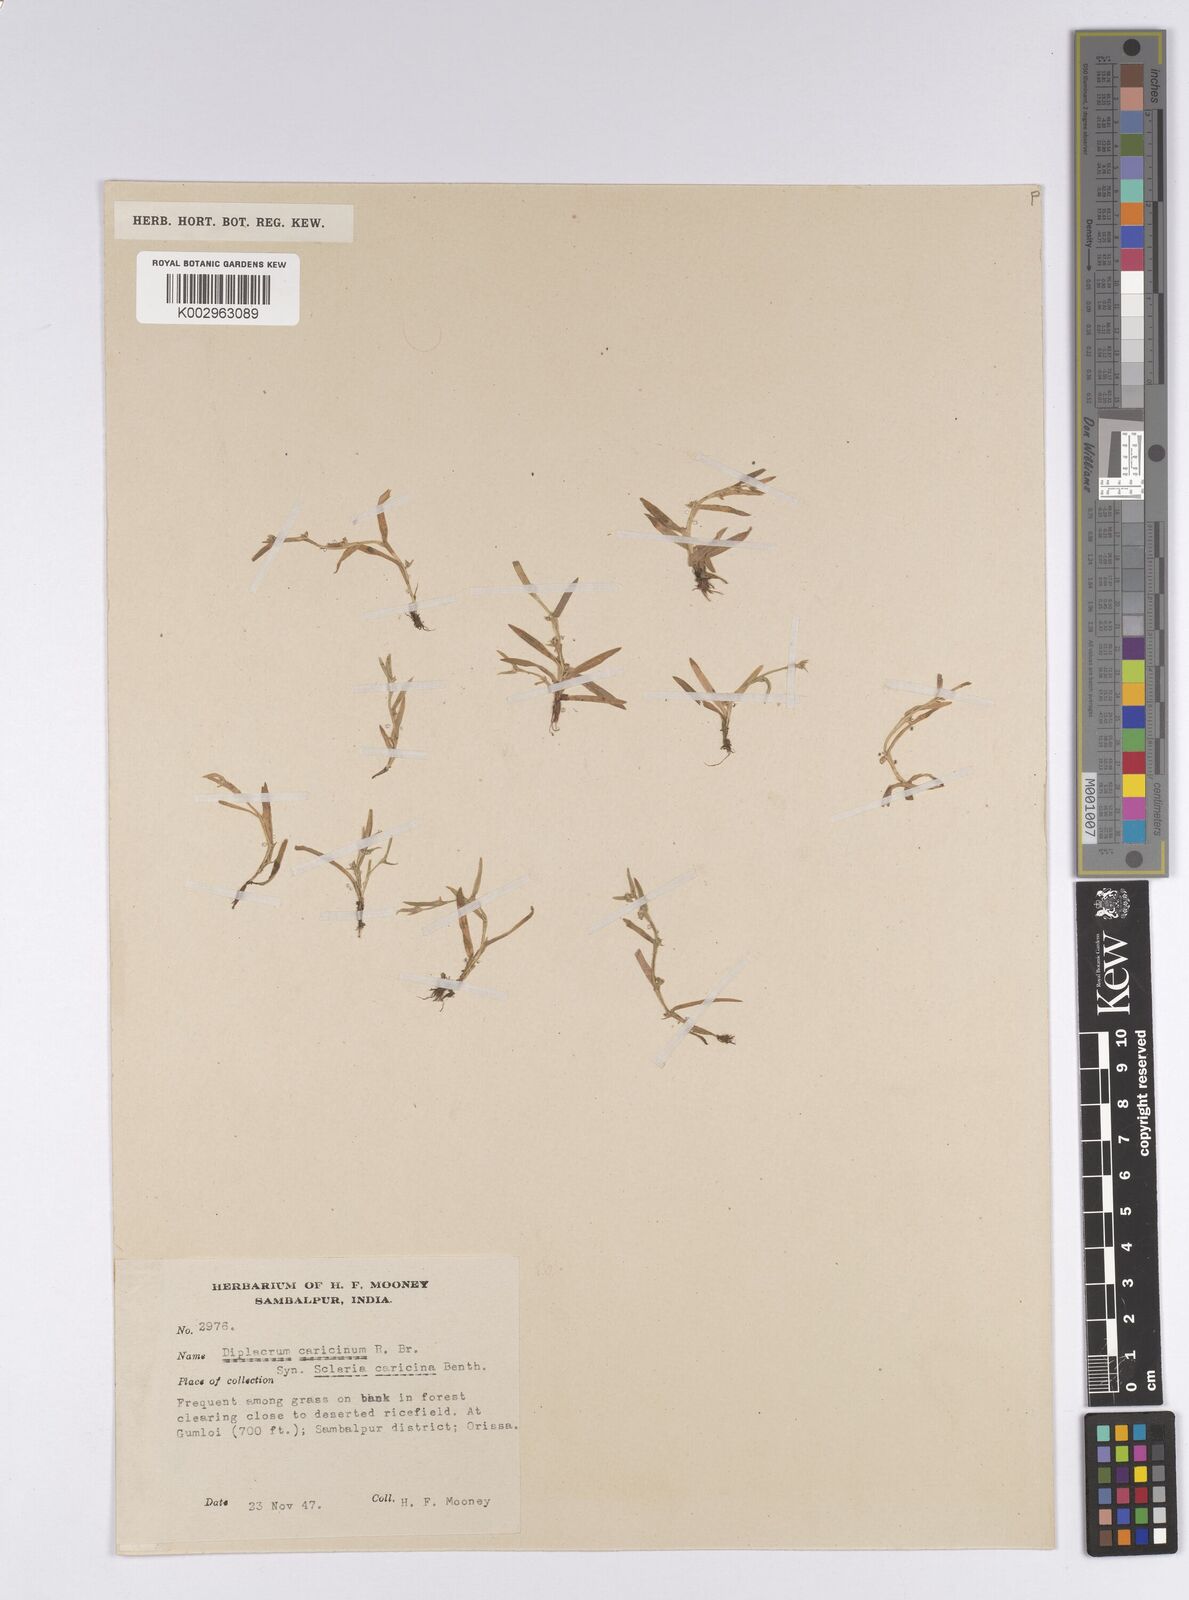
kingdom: Plantae
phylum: Tracheophyta
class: Liliopsida
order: Poales
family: Cyperaceae
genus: Diplacrum
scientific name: Diplacrum caricinum
